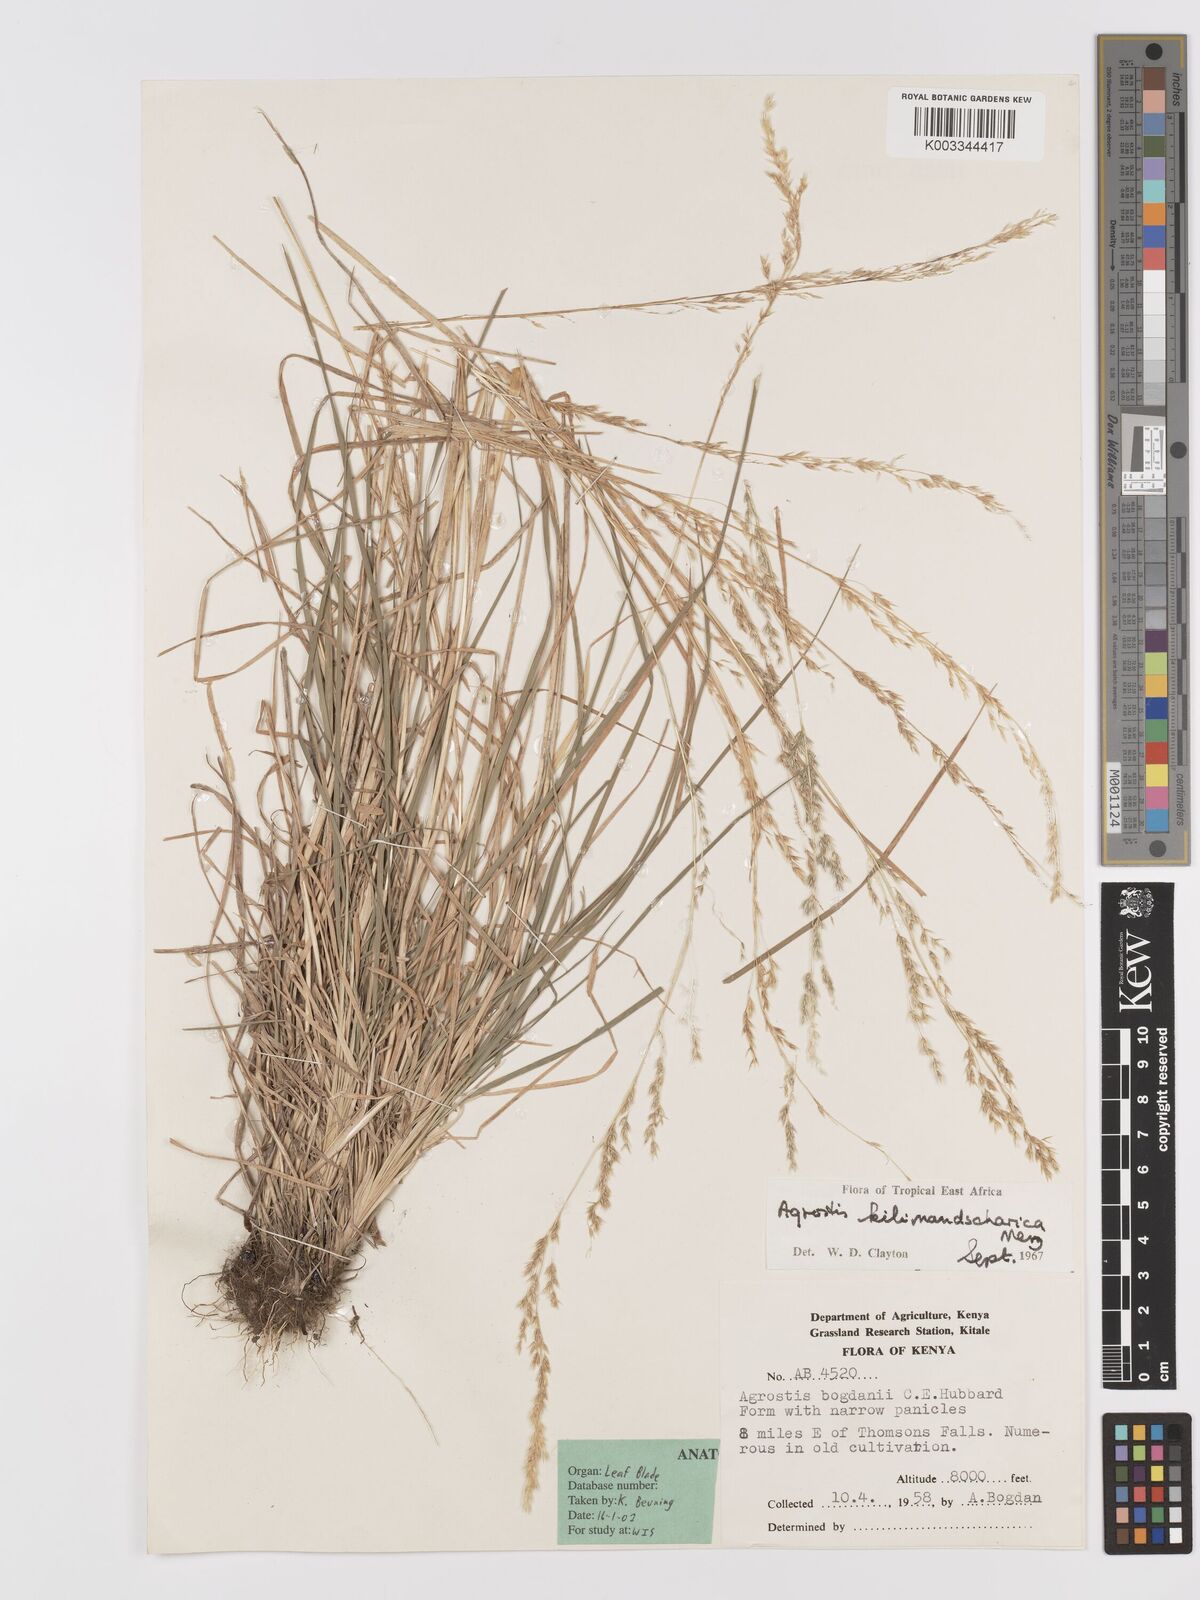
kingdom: Plantae
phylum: Tracheophyta
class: Liliopsida
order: Poales
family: Poaceae
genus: Agrostis
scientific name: Agrostis kilimandscharica
